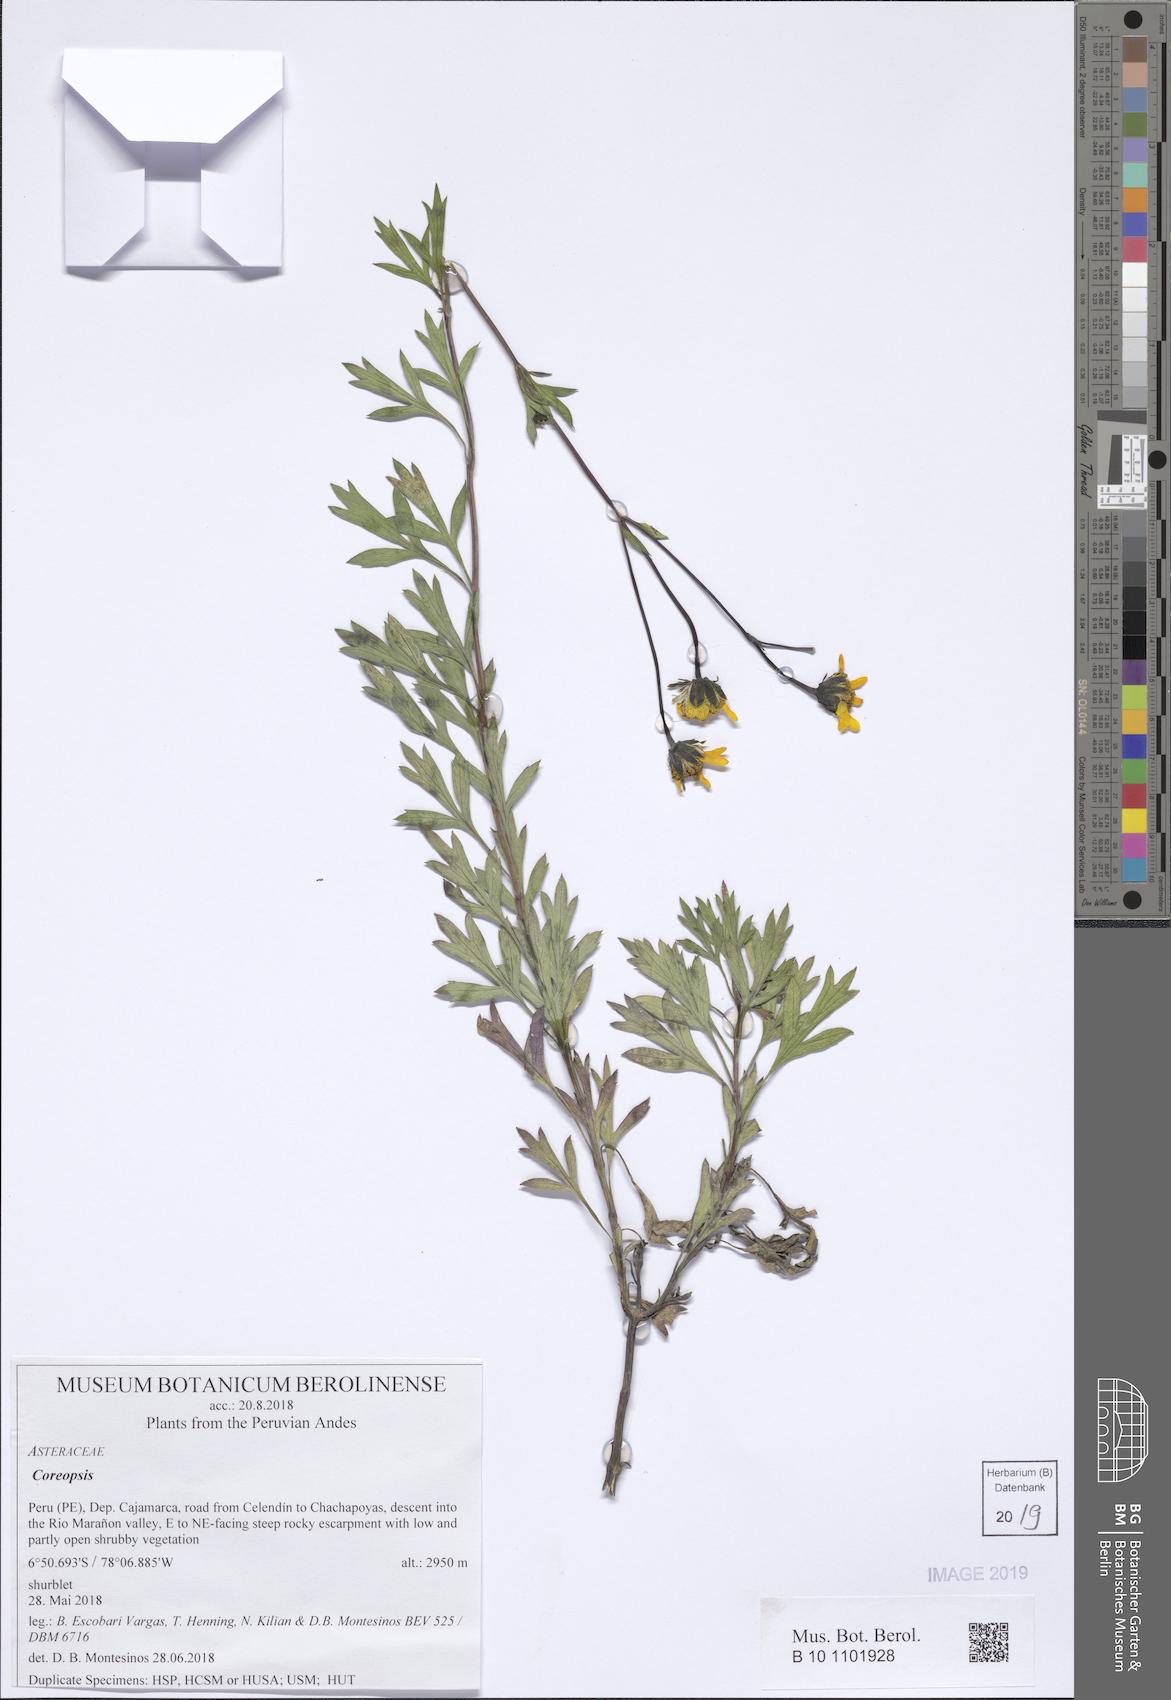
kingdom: Plantae
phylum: Tracheophyta
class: Magnoliopsida
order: Asterales
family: Asteraceae
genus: Coreopsis
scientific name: Coreopsis
